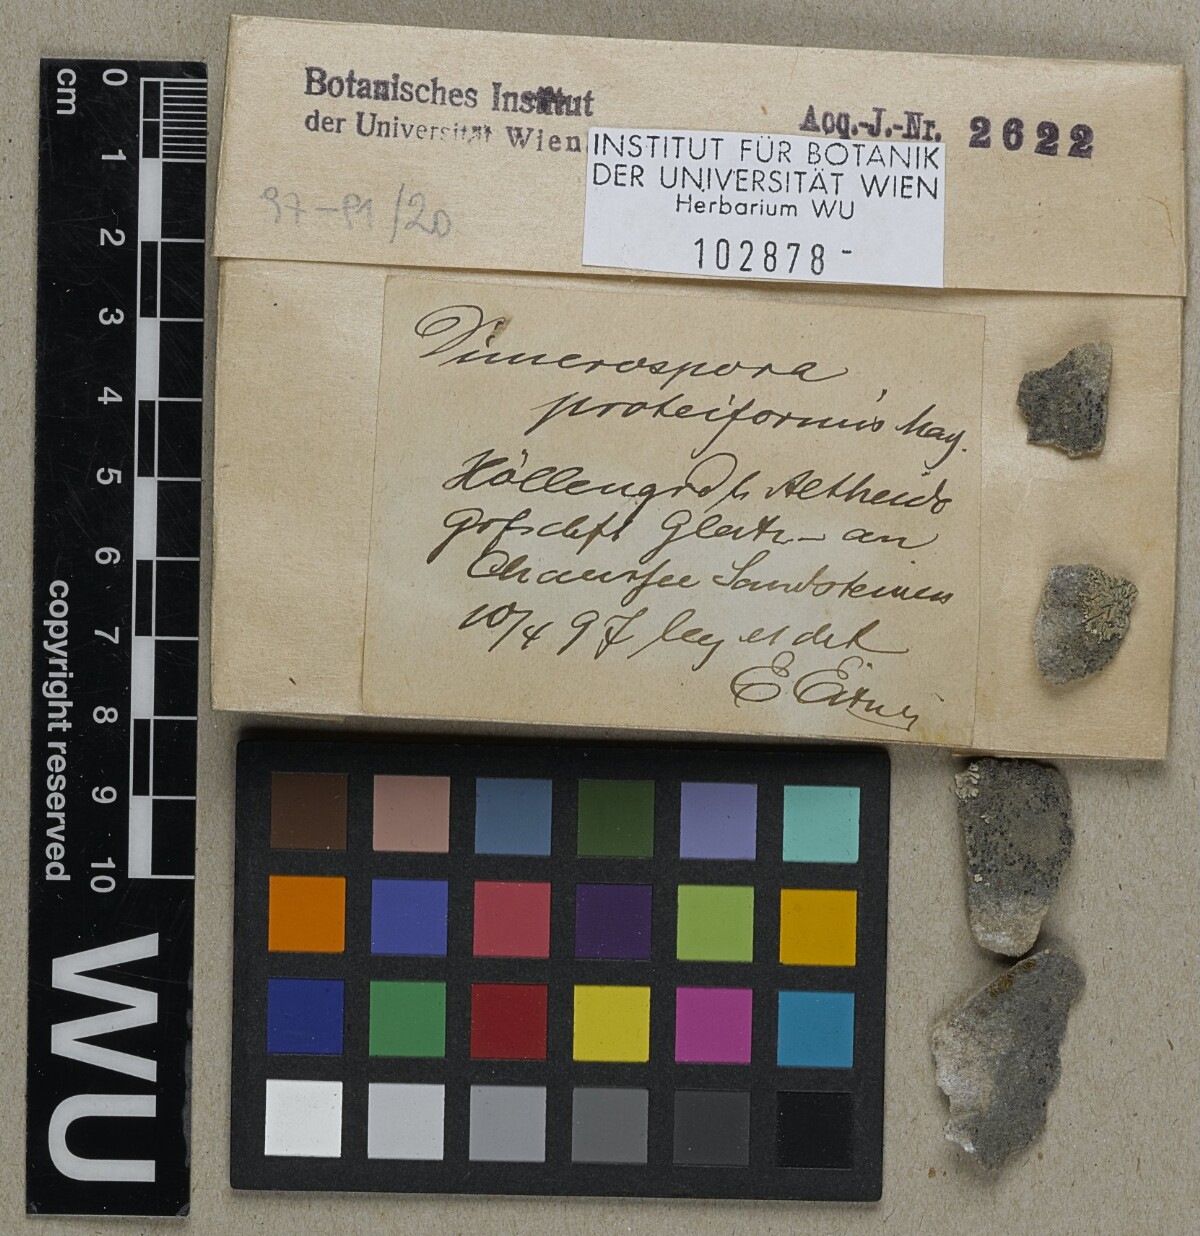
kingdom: Fungi
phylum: Ascomycota
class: Lecanoromycetes
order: Lecanorales
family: Ramalinaceae
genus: Lecania
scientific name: Lecania
